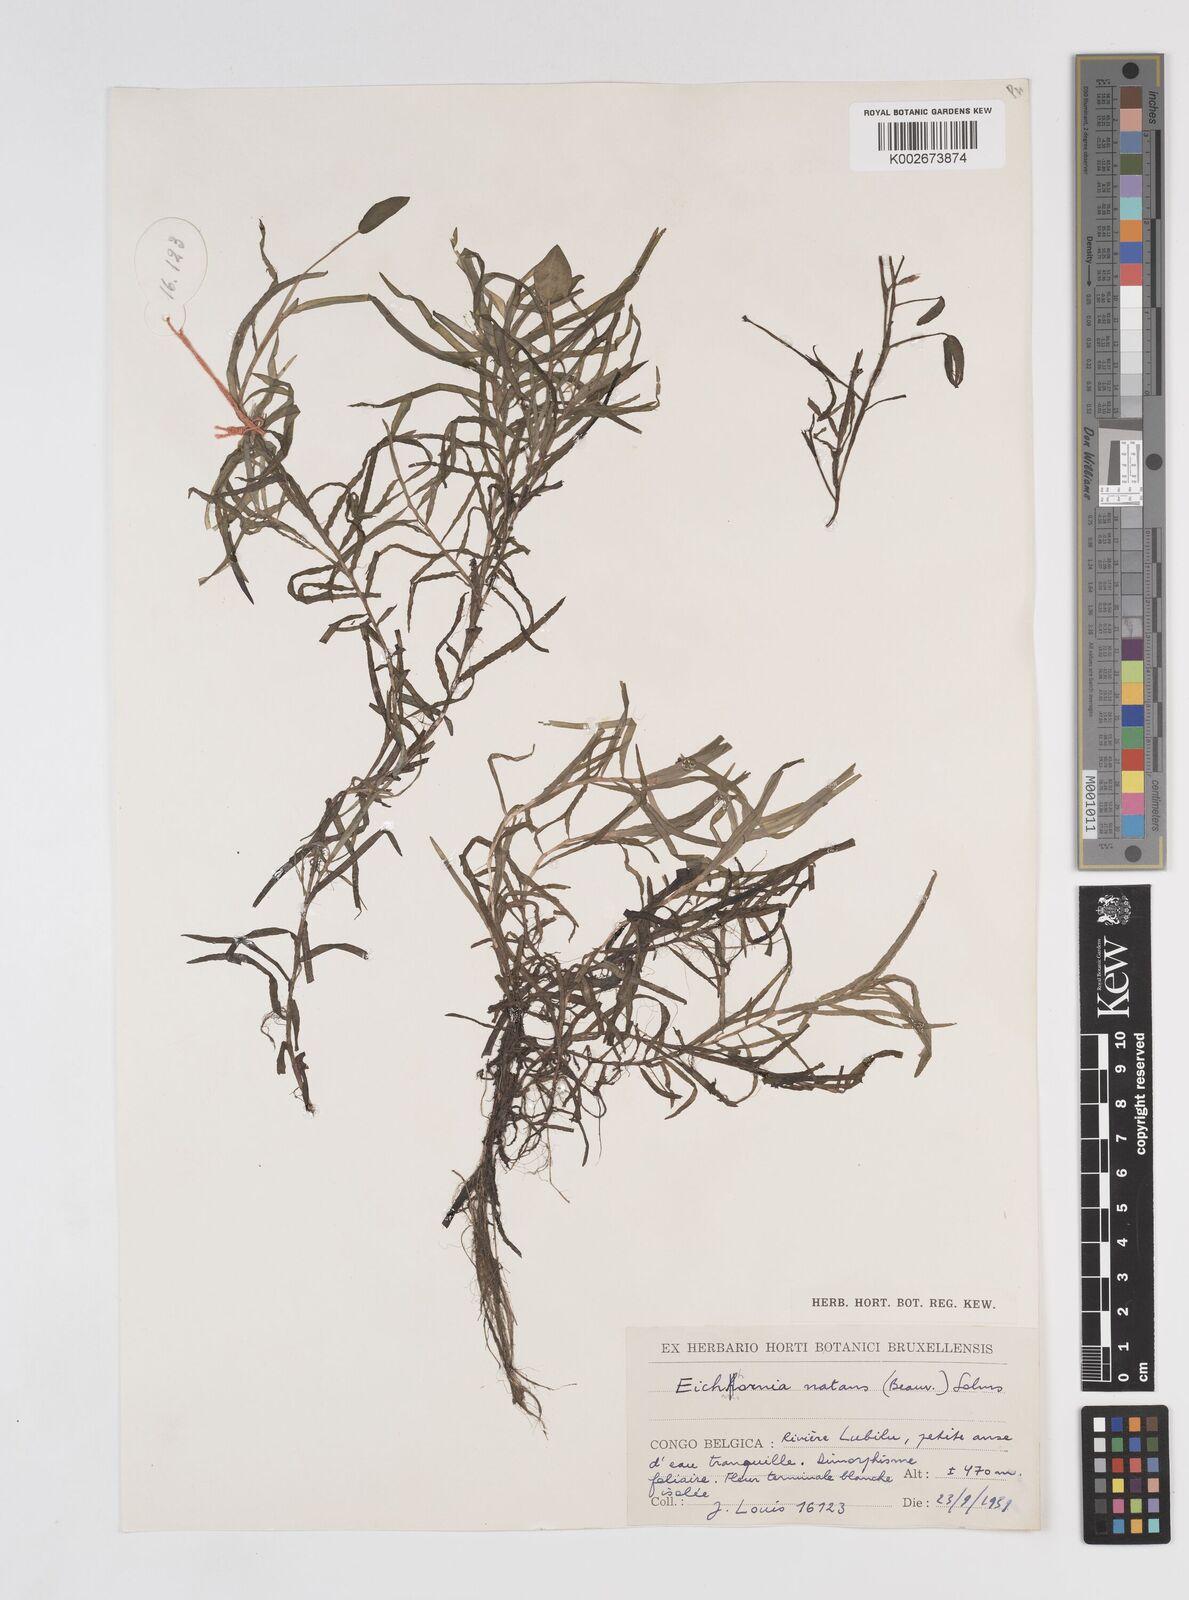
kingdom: Plantae
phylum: Tracheophyta
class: Liliopsida
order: Commelinales
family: Pontederiaceae
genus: Pontederia
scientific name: Pontederia natans
